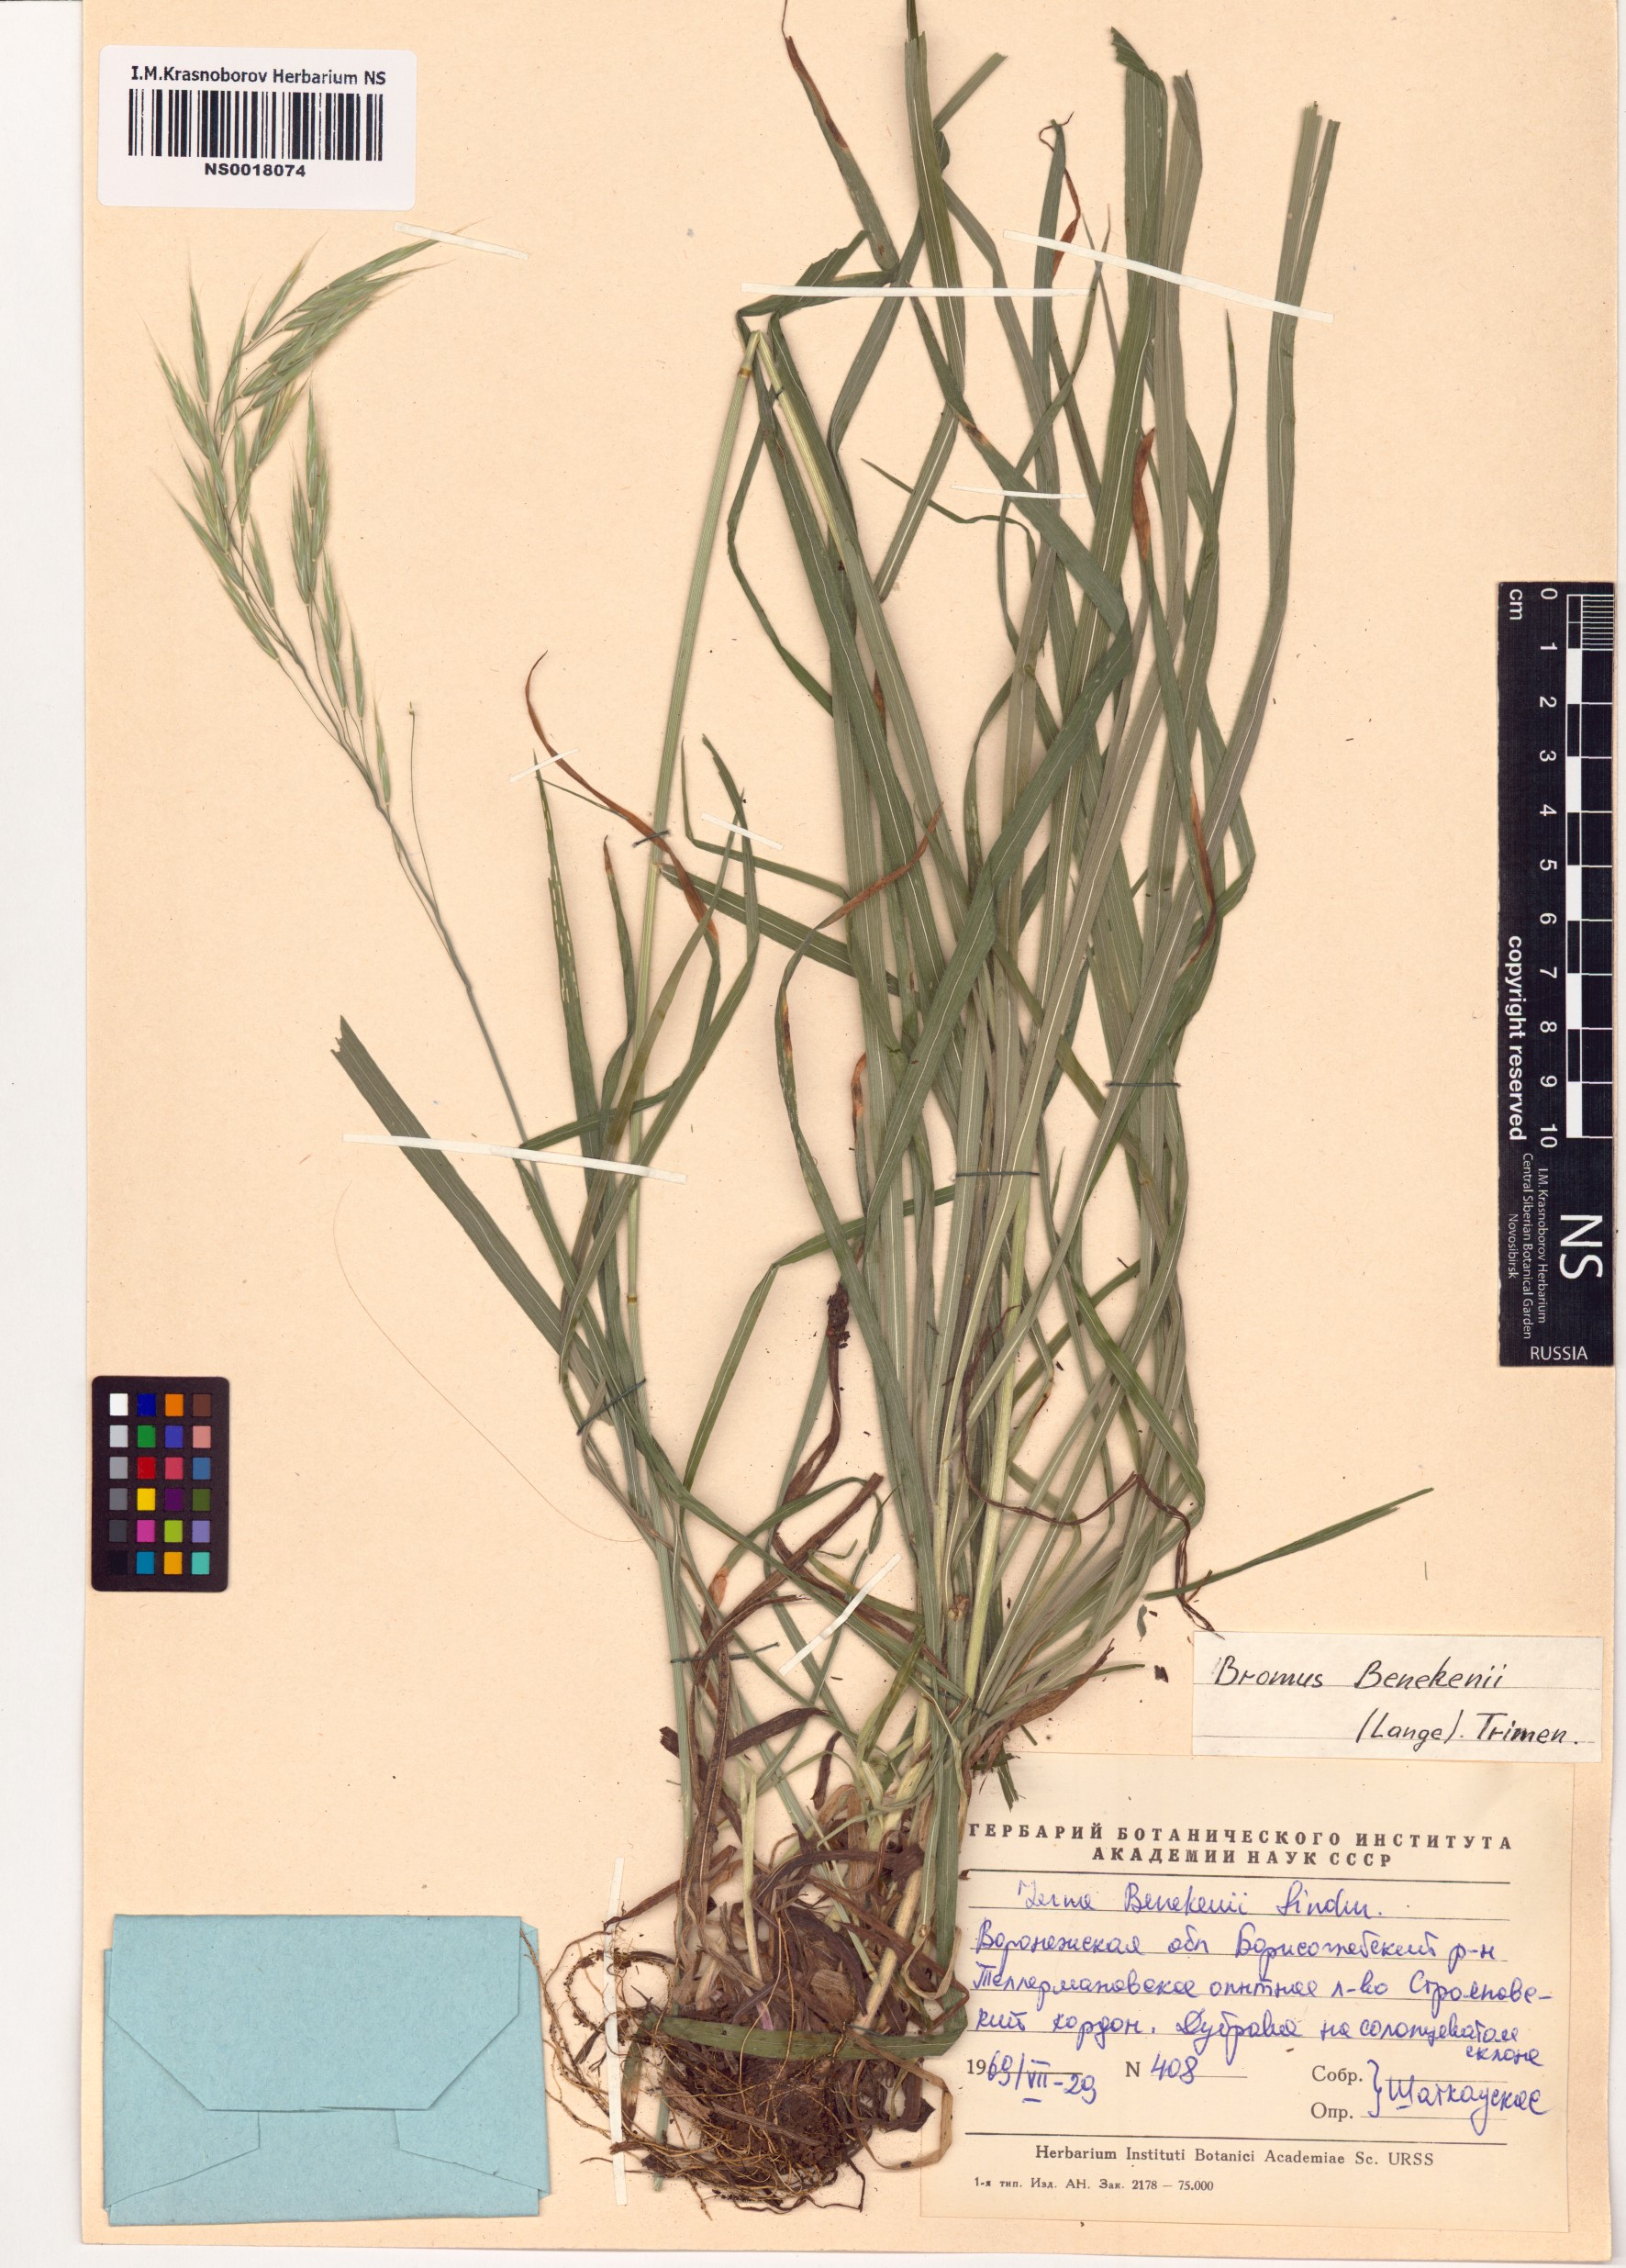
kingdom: Plantae
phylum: Tracheophyta
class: Liliopsida
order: Poales
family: Poaceae
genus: Bromus
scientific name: Bromus benekenii
